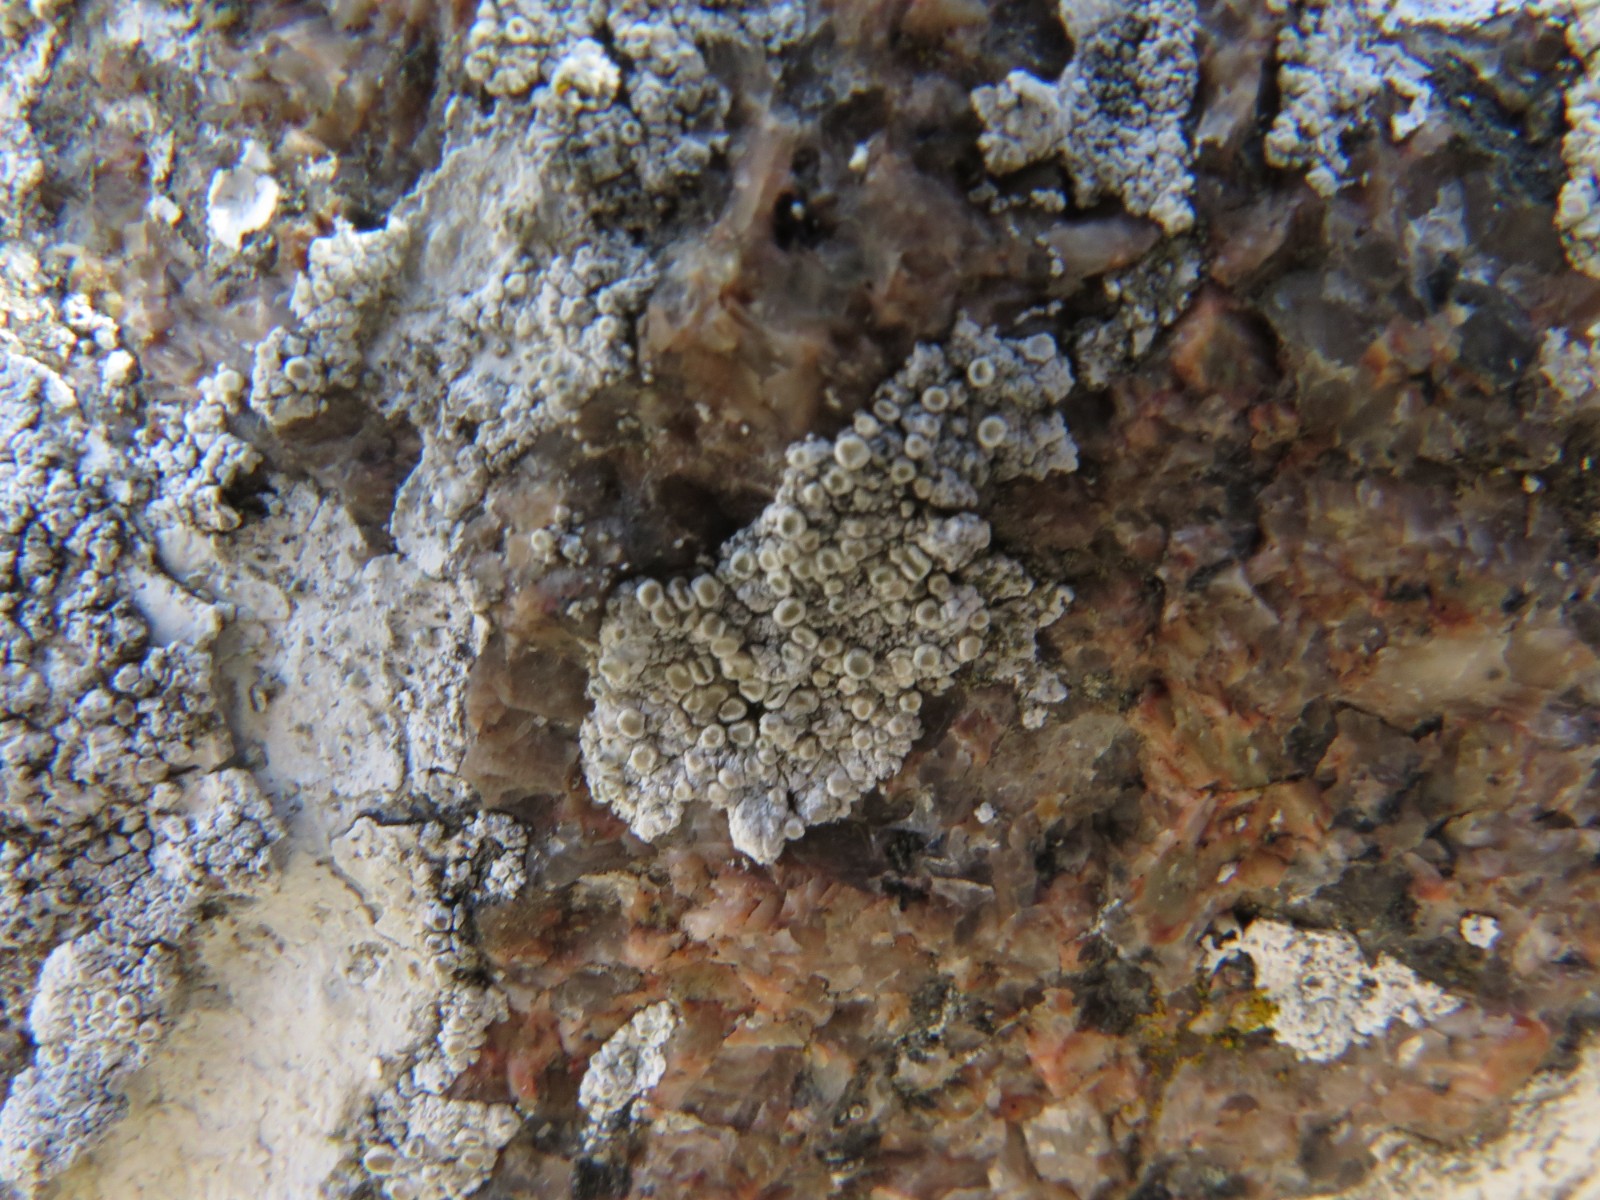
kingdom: Fungi
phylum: Ascomycota
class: Lecanoromycetes
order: Lecanorales
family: Lecanoraceae
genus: Polyozosia
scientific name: Polyozosia albescens
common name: cement-kantskivelav
